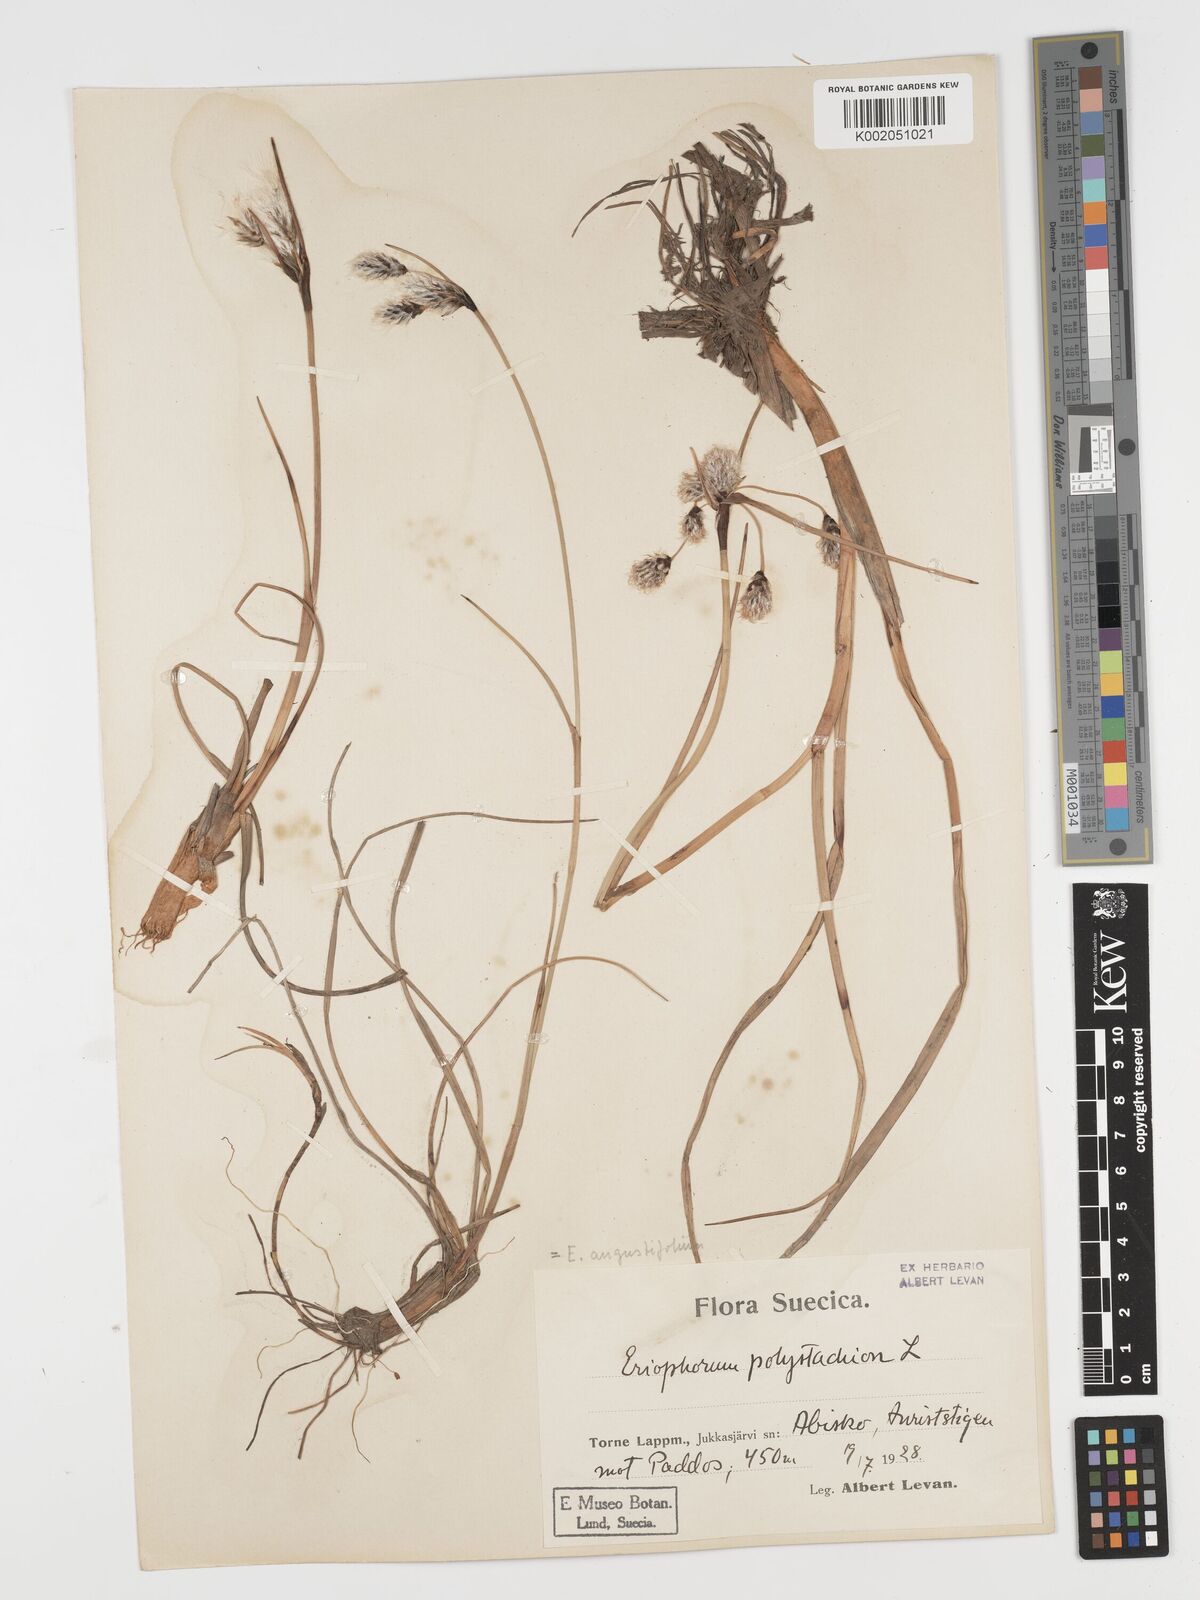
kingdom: Plantae
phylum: Tracheophyta
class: Liliopsida
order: Poales
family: Cyperaceae
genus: Eriophorum
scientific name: Eriophorum angustifolium
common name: Common cottongrass
